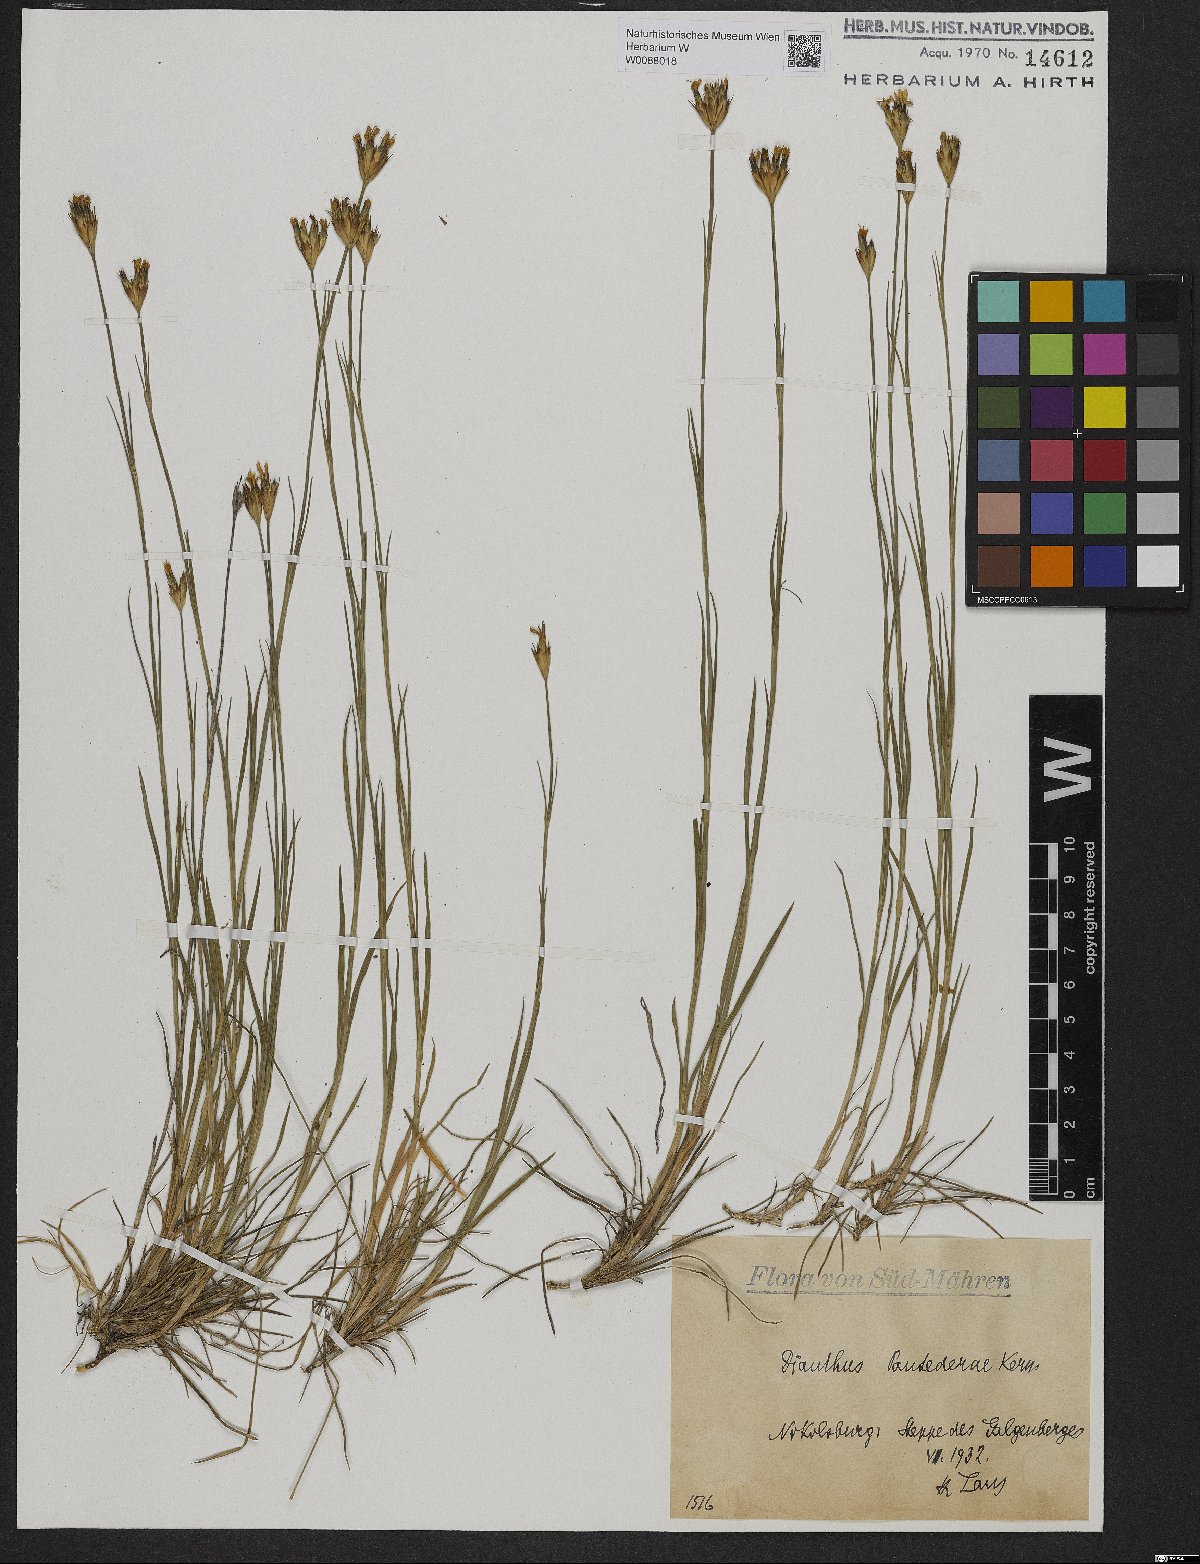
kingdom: Plantae
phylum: Tracheophyta
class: Magnoliopsida
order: Caryophyllales
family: Caryophyllaceae
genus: Dianthus
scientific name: Dianthus pontederae
